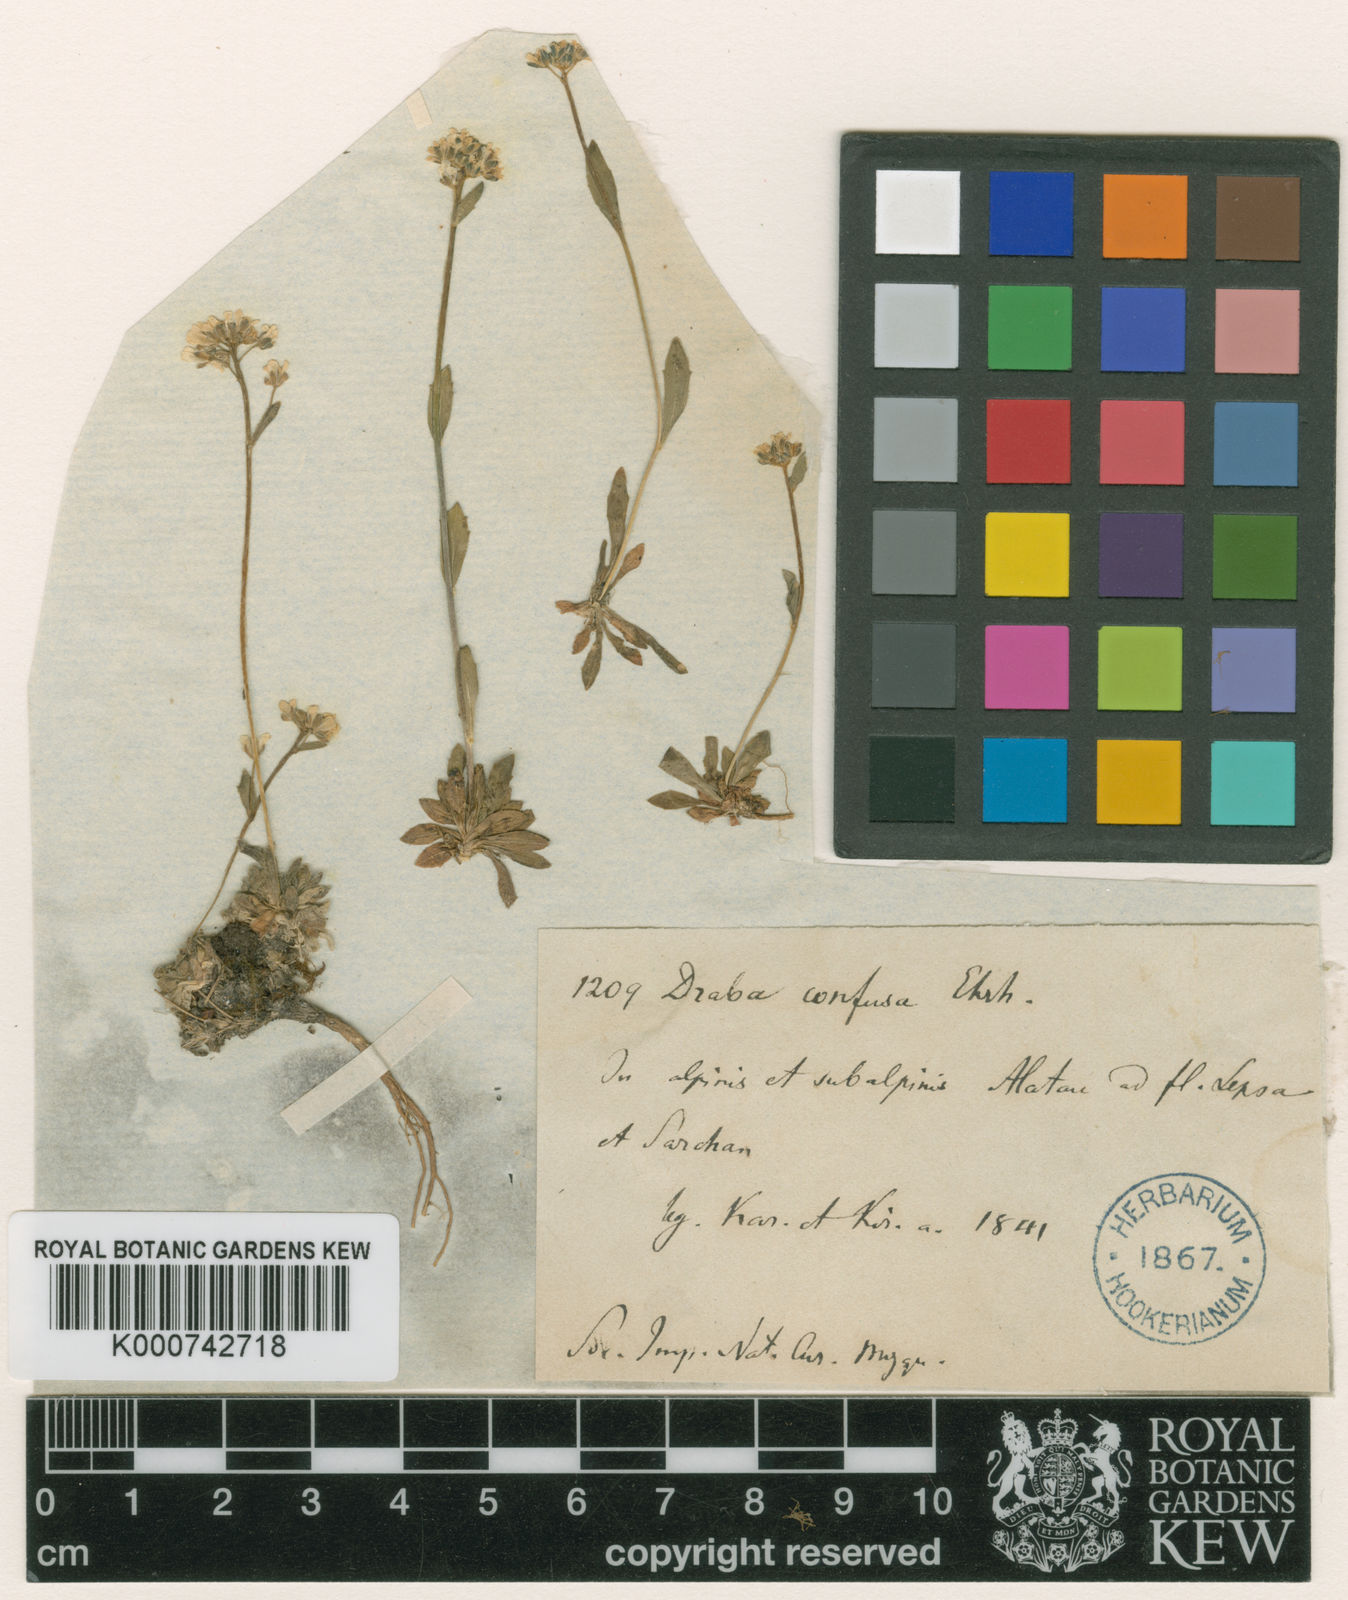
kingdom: Plantae
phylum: Tracheophyta
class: Magnoliopsida
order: Brassicales
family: Brassicaceae
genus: Draba
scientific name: Draba subamplexicaulis
